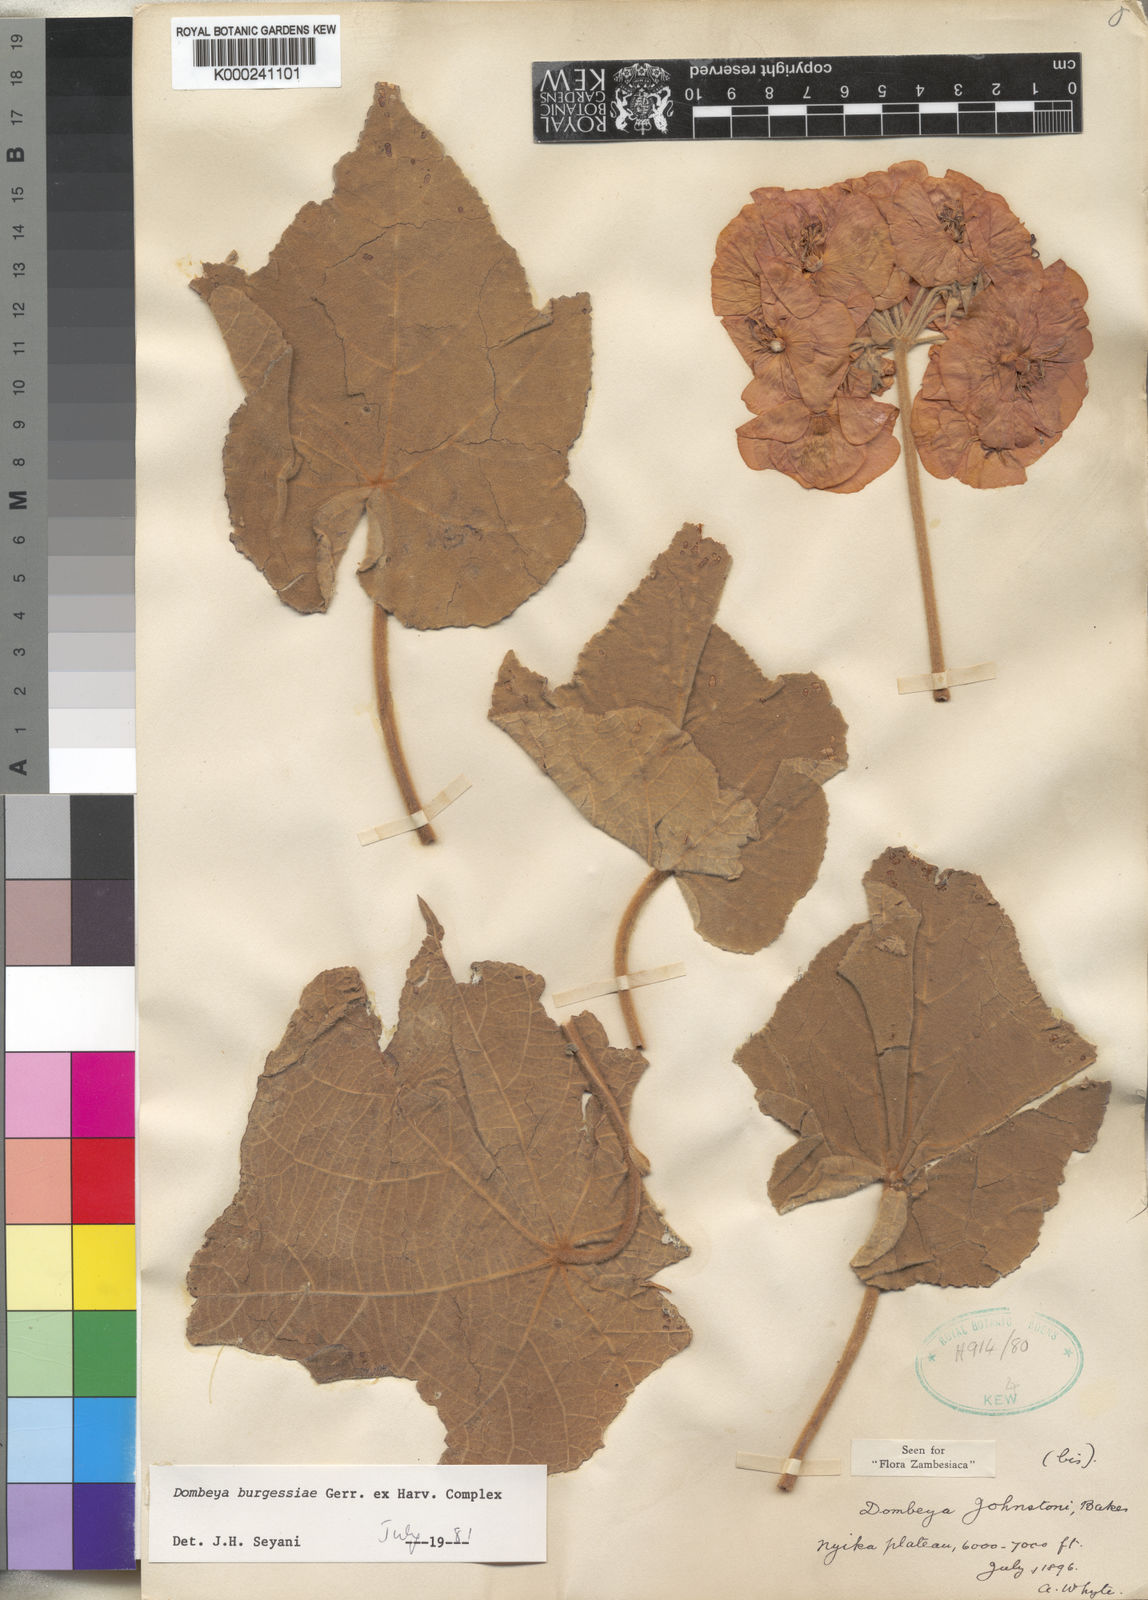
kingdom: Plantae
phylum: Tracheophyta
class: Magnoliopsida
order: Malvales
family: Malvaceae
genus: Dombeya
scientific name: Dombeya burgessiae
